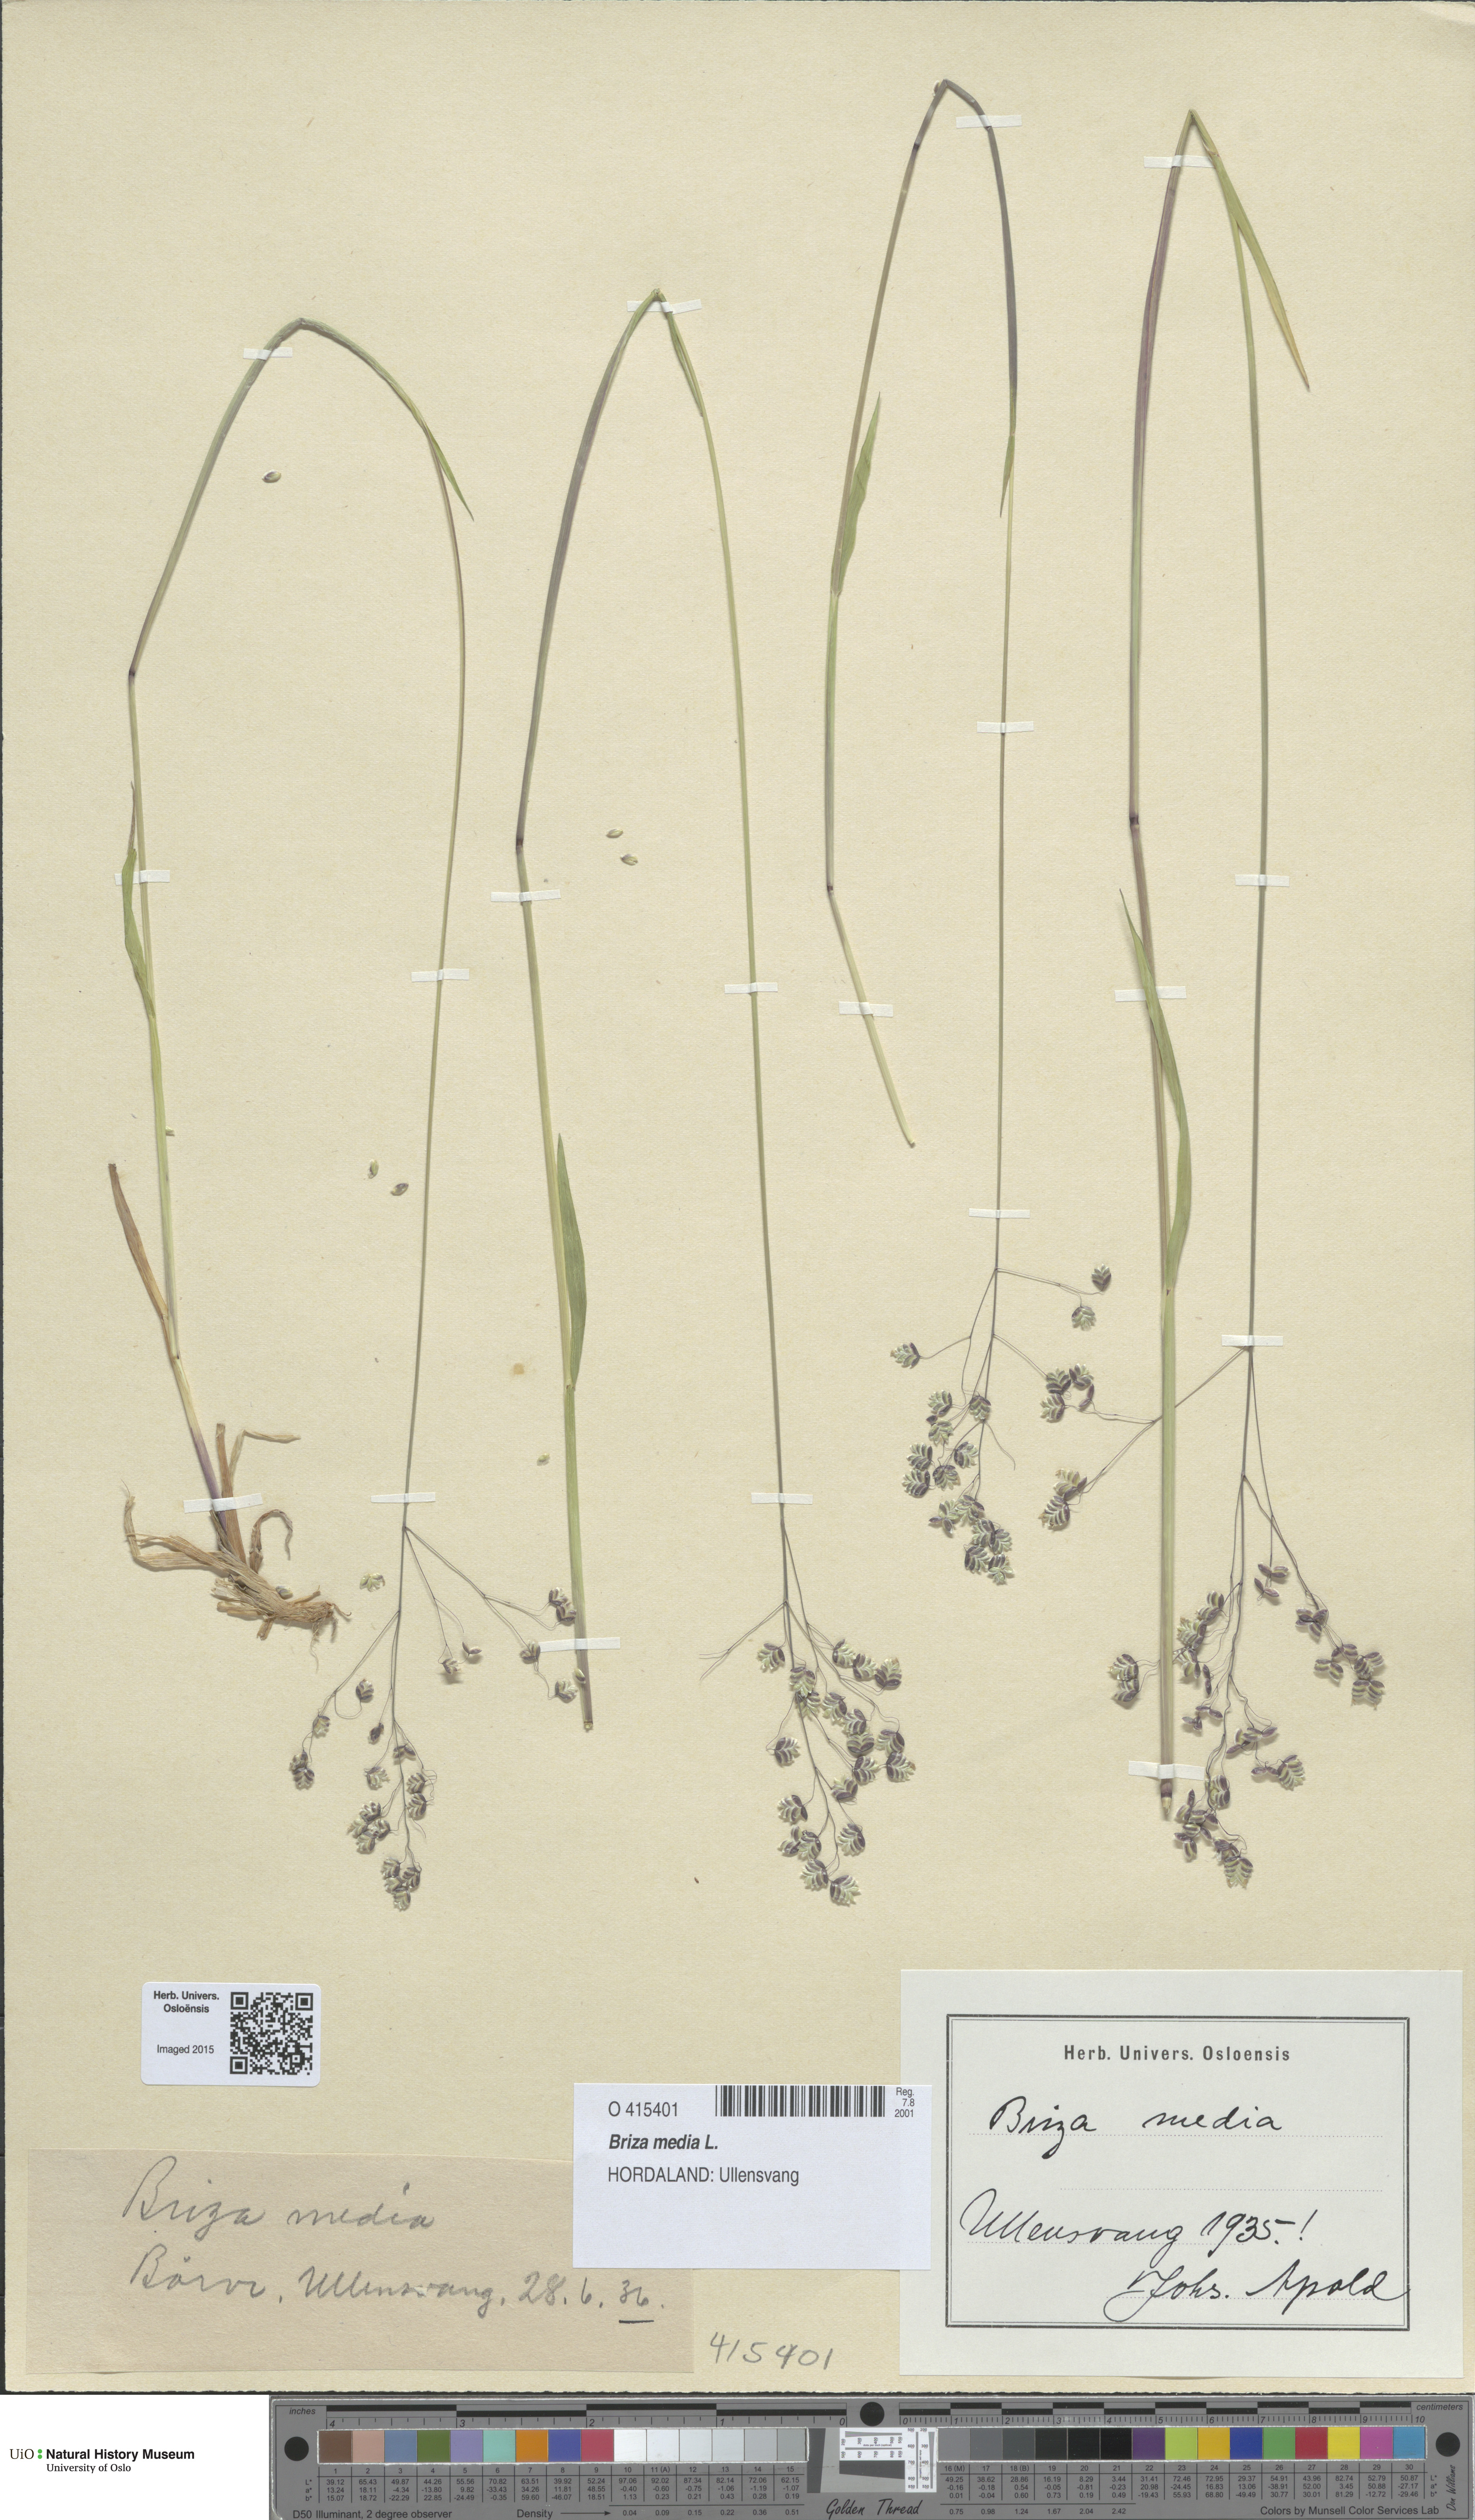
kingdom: Plantae
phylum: Tracheophyta
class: Liliopsida
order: Poales
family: Poaceae
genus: Briza
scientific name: Briza media
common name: Quaking grass
